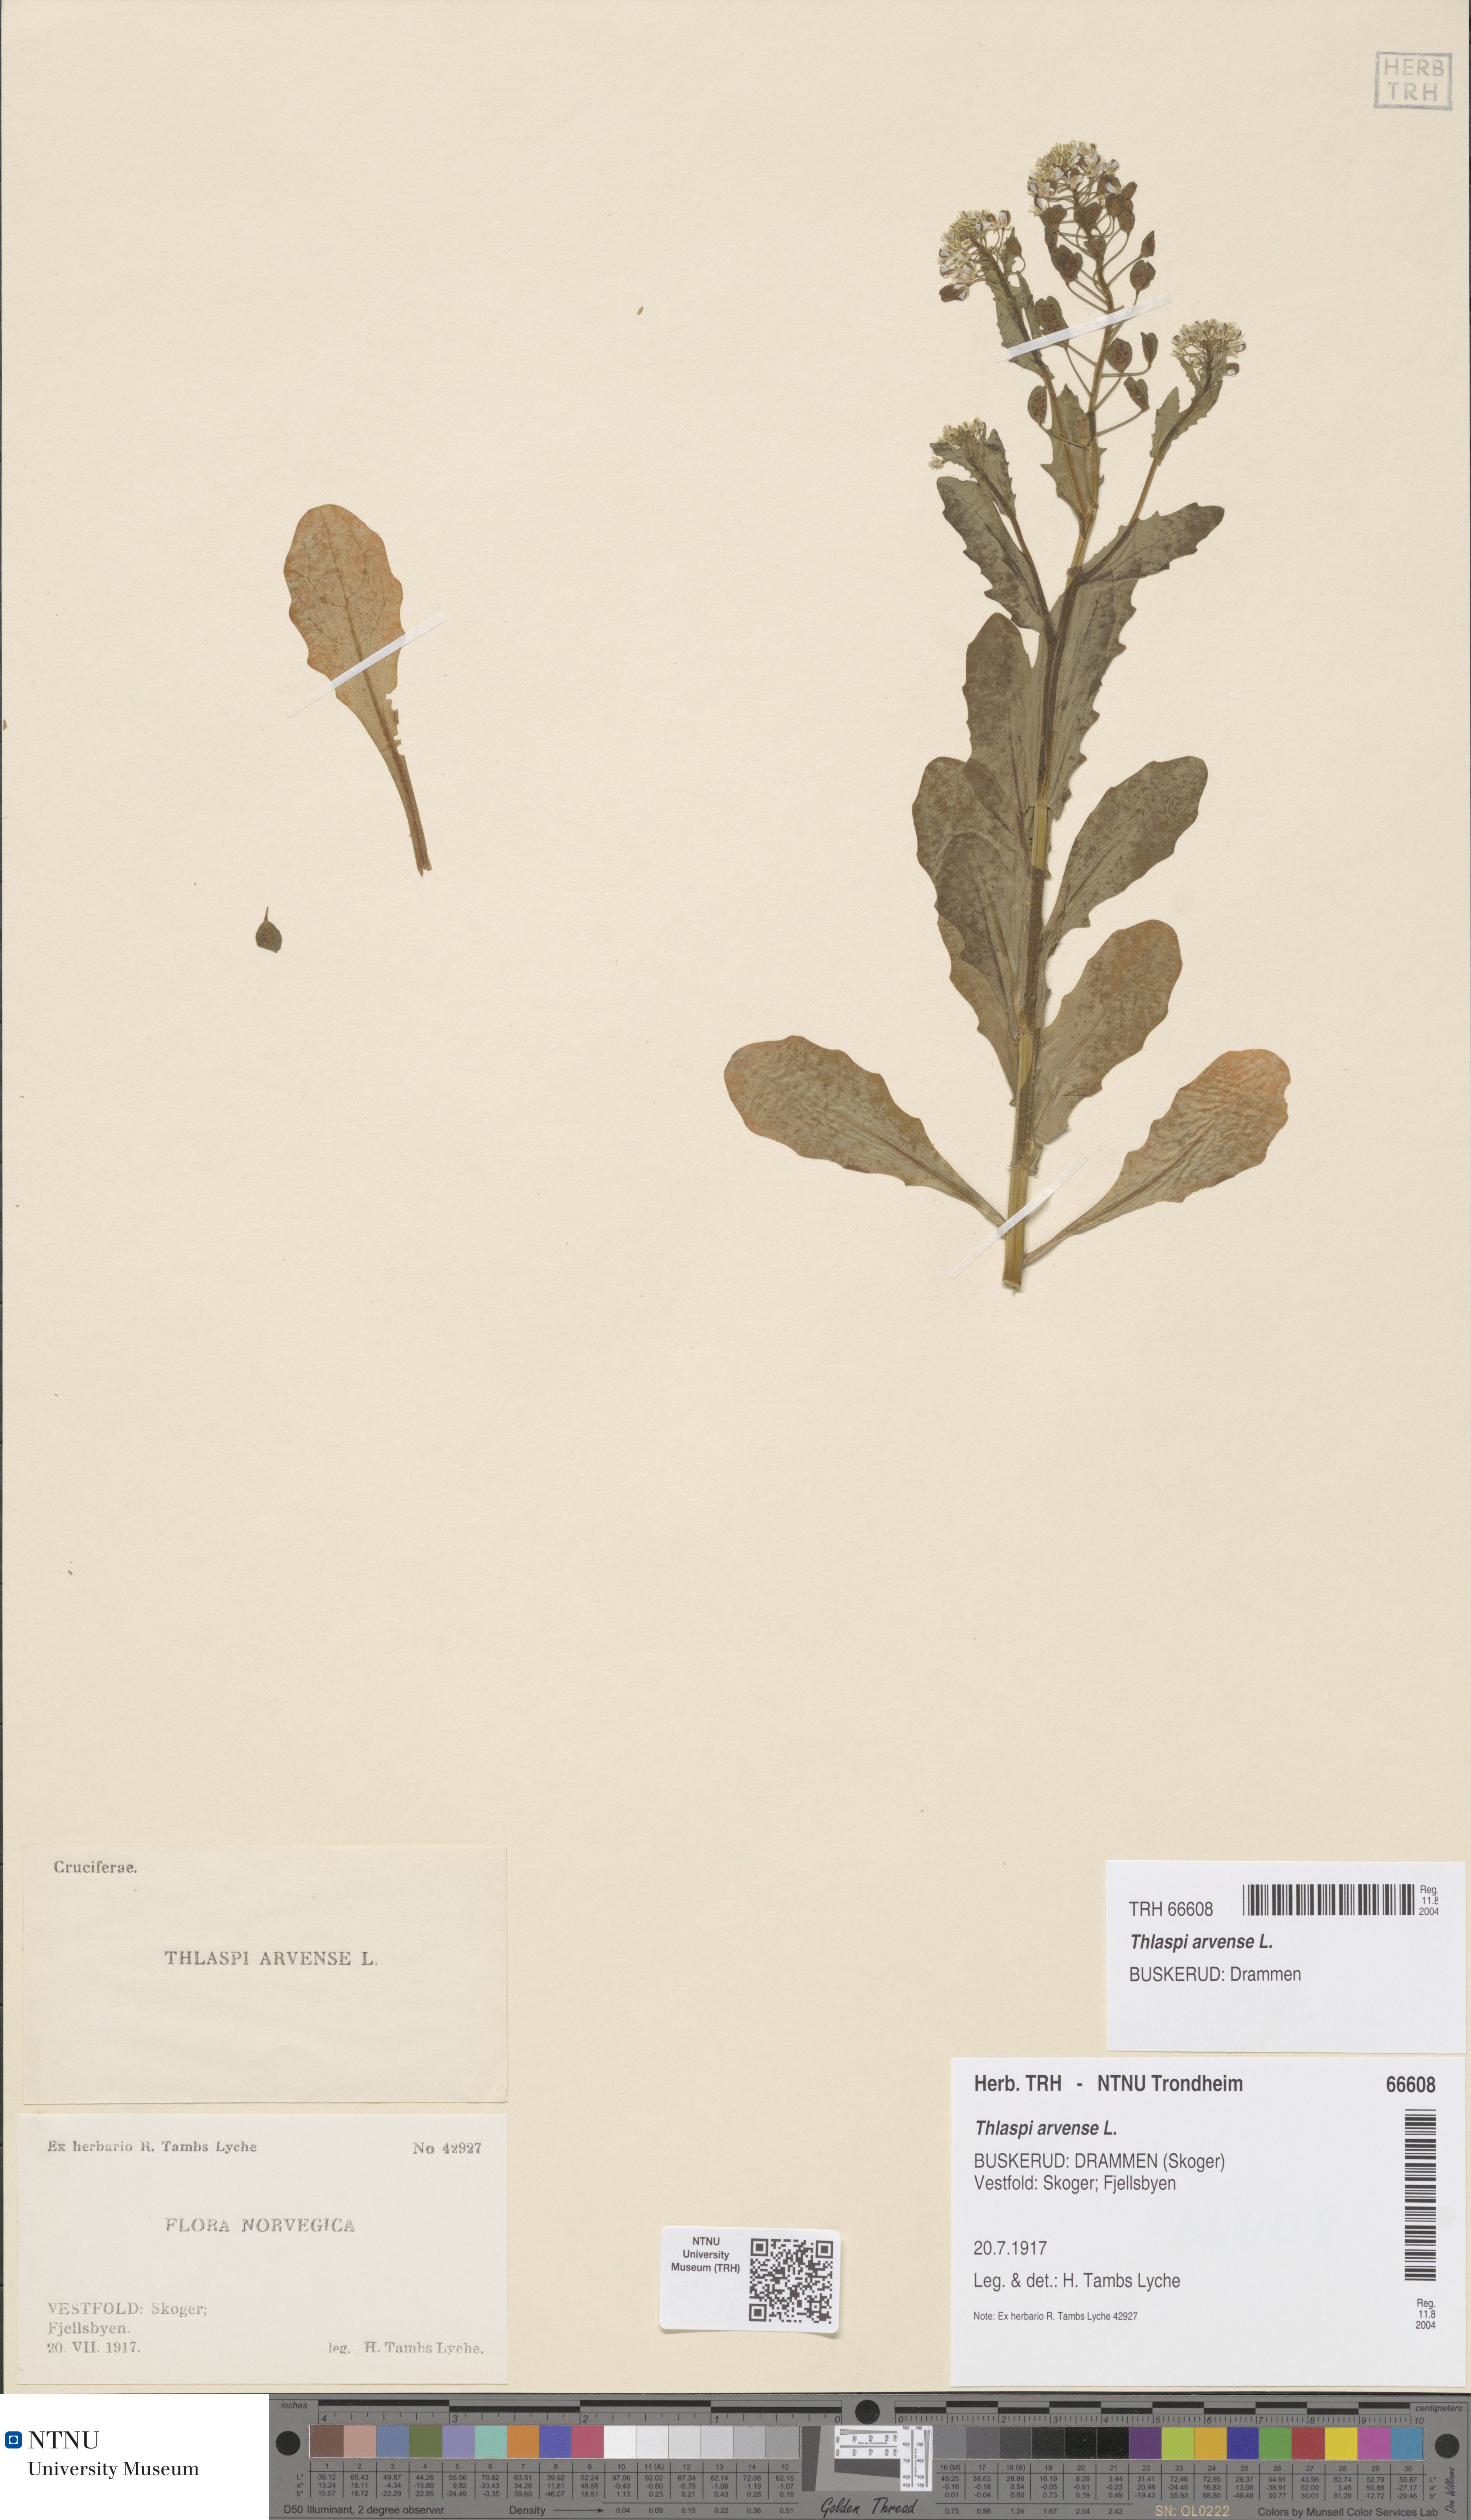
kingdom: Plantae
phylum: Tracheophyta
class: Magnoliopsida
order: Brassicales
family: Brassicaceae
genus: Thlaspi
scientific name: Thlaspi arvense
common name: Field pennycress
